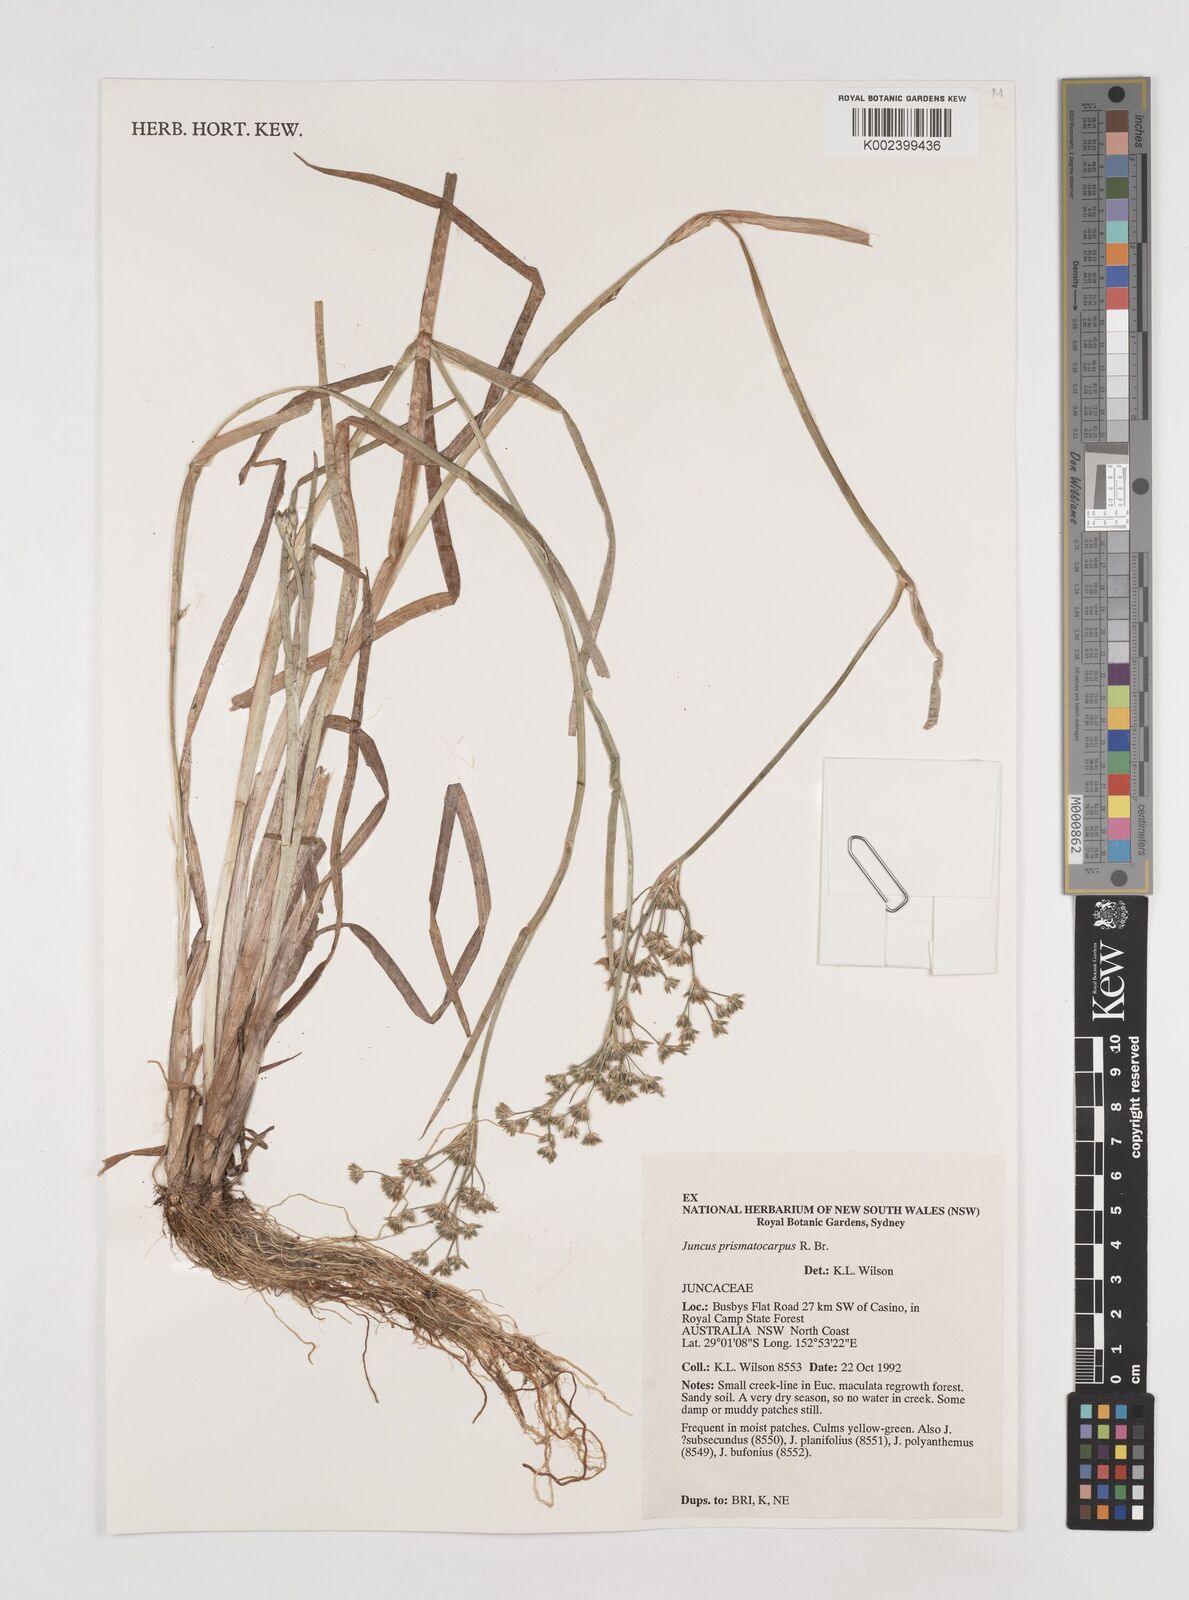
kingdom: Plantae
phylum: Tracheophyta
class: Liliopsida
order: Poales
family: Juncaceae
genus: Juncus
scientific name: Juncus prismatocarpus
